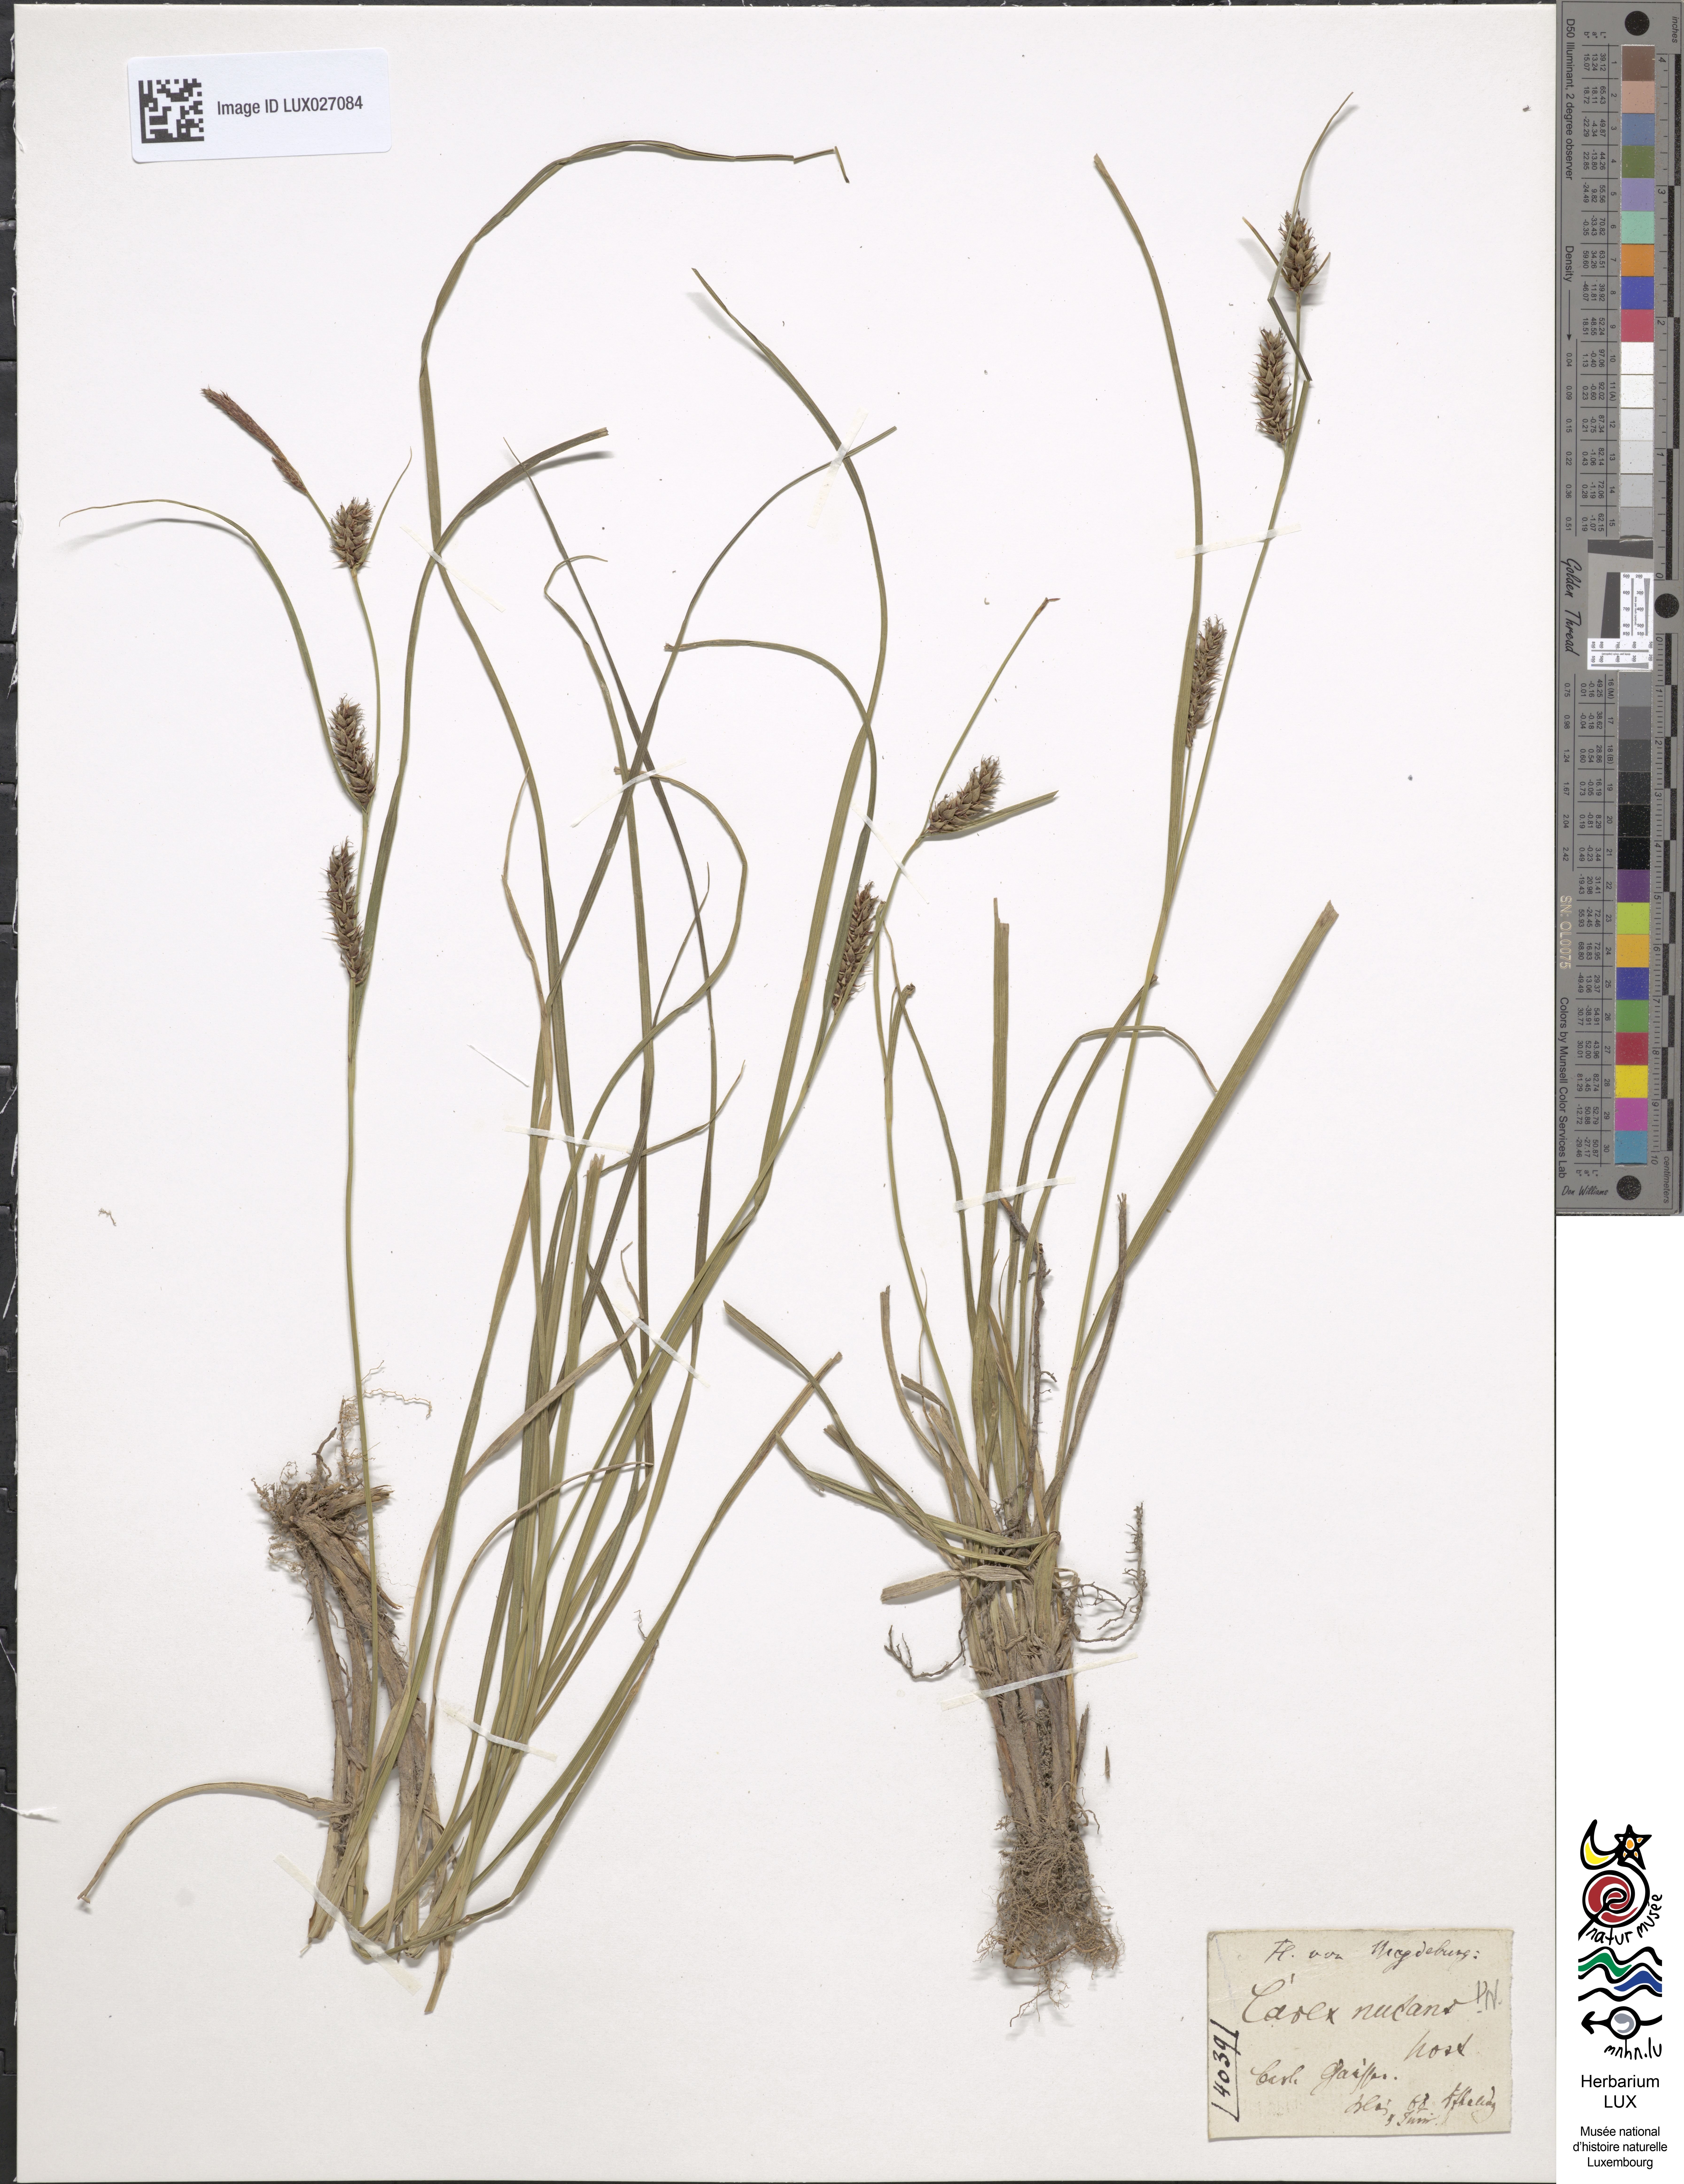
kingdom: Plantae
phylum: Tracheophyta
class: Liliopsida
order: Poales
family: Cyperaceae
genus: Carex
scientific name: Carex melanostachya
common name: Black-spiked sedge
